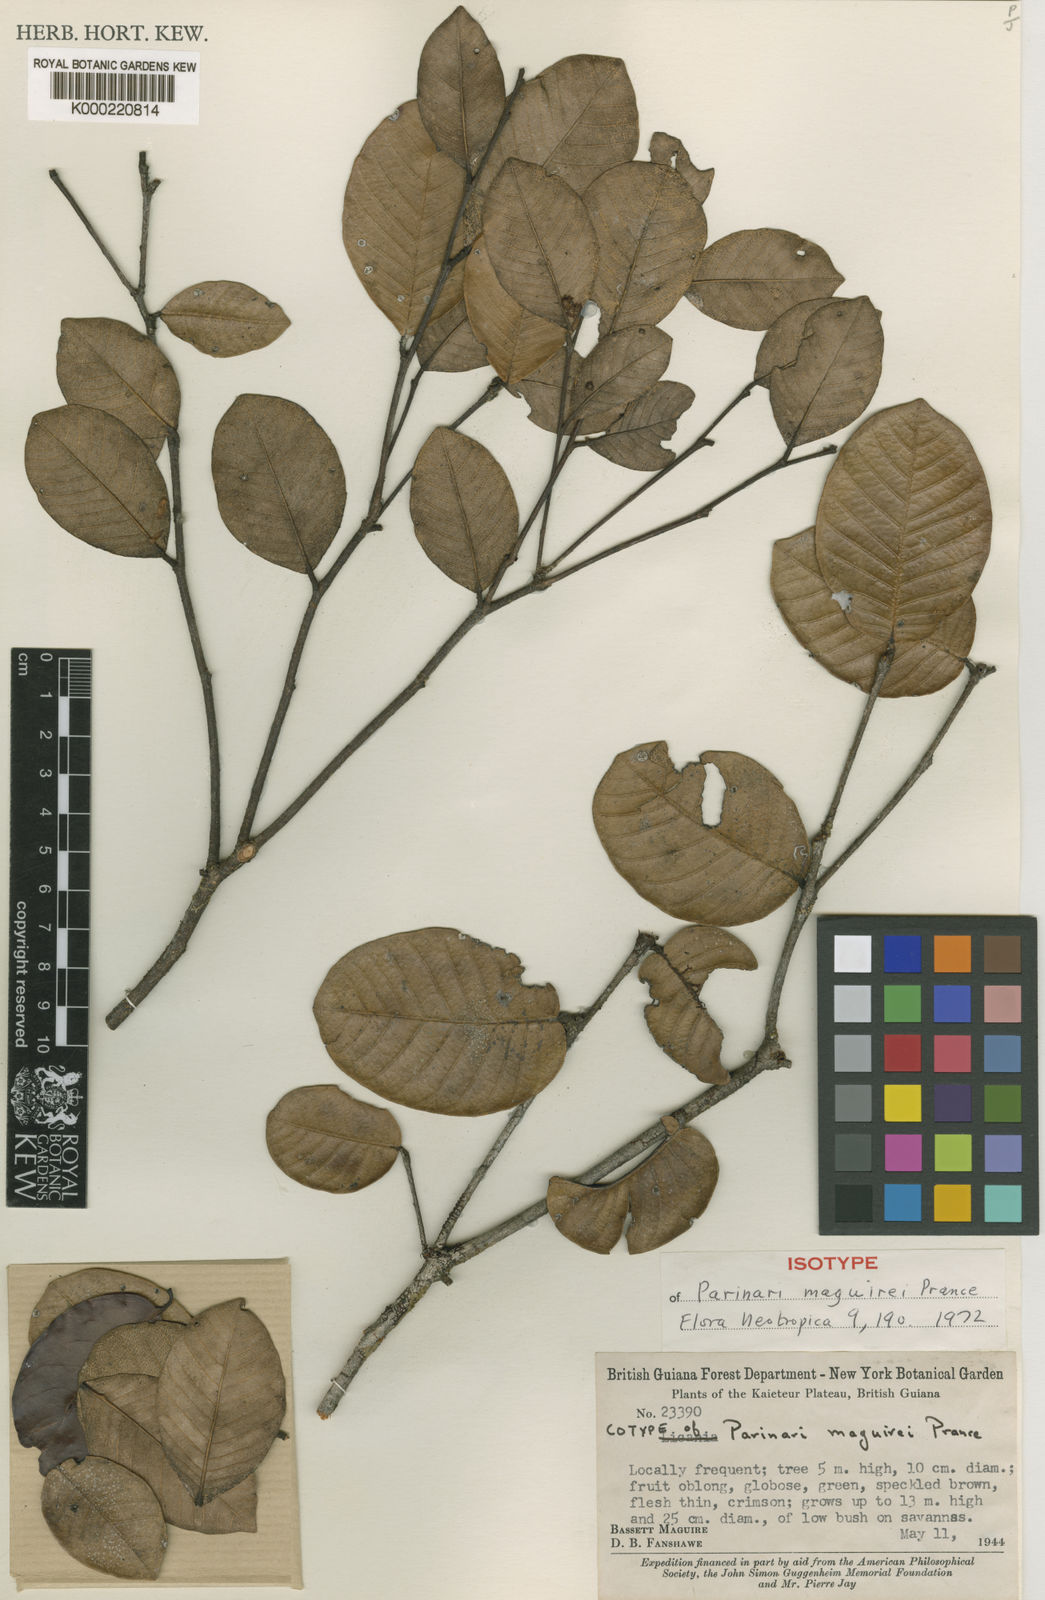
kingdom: Plantae
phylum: Tracheophyta
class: Magnoliopsida
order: Malpighiales
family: Chrysobalanaceae
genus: Parinari
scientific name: Parinari maguirei
